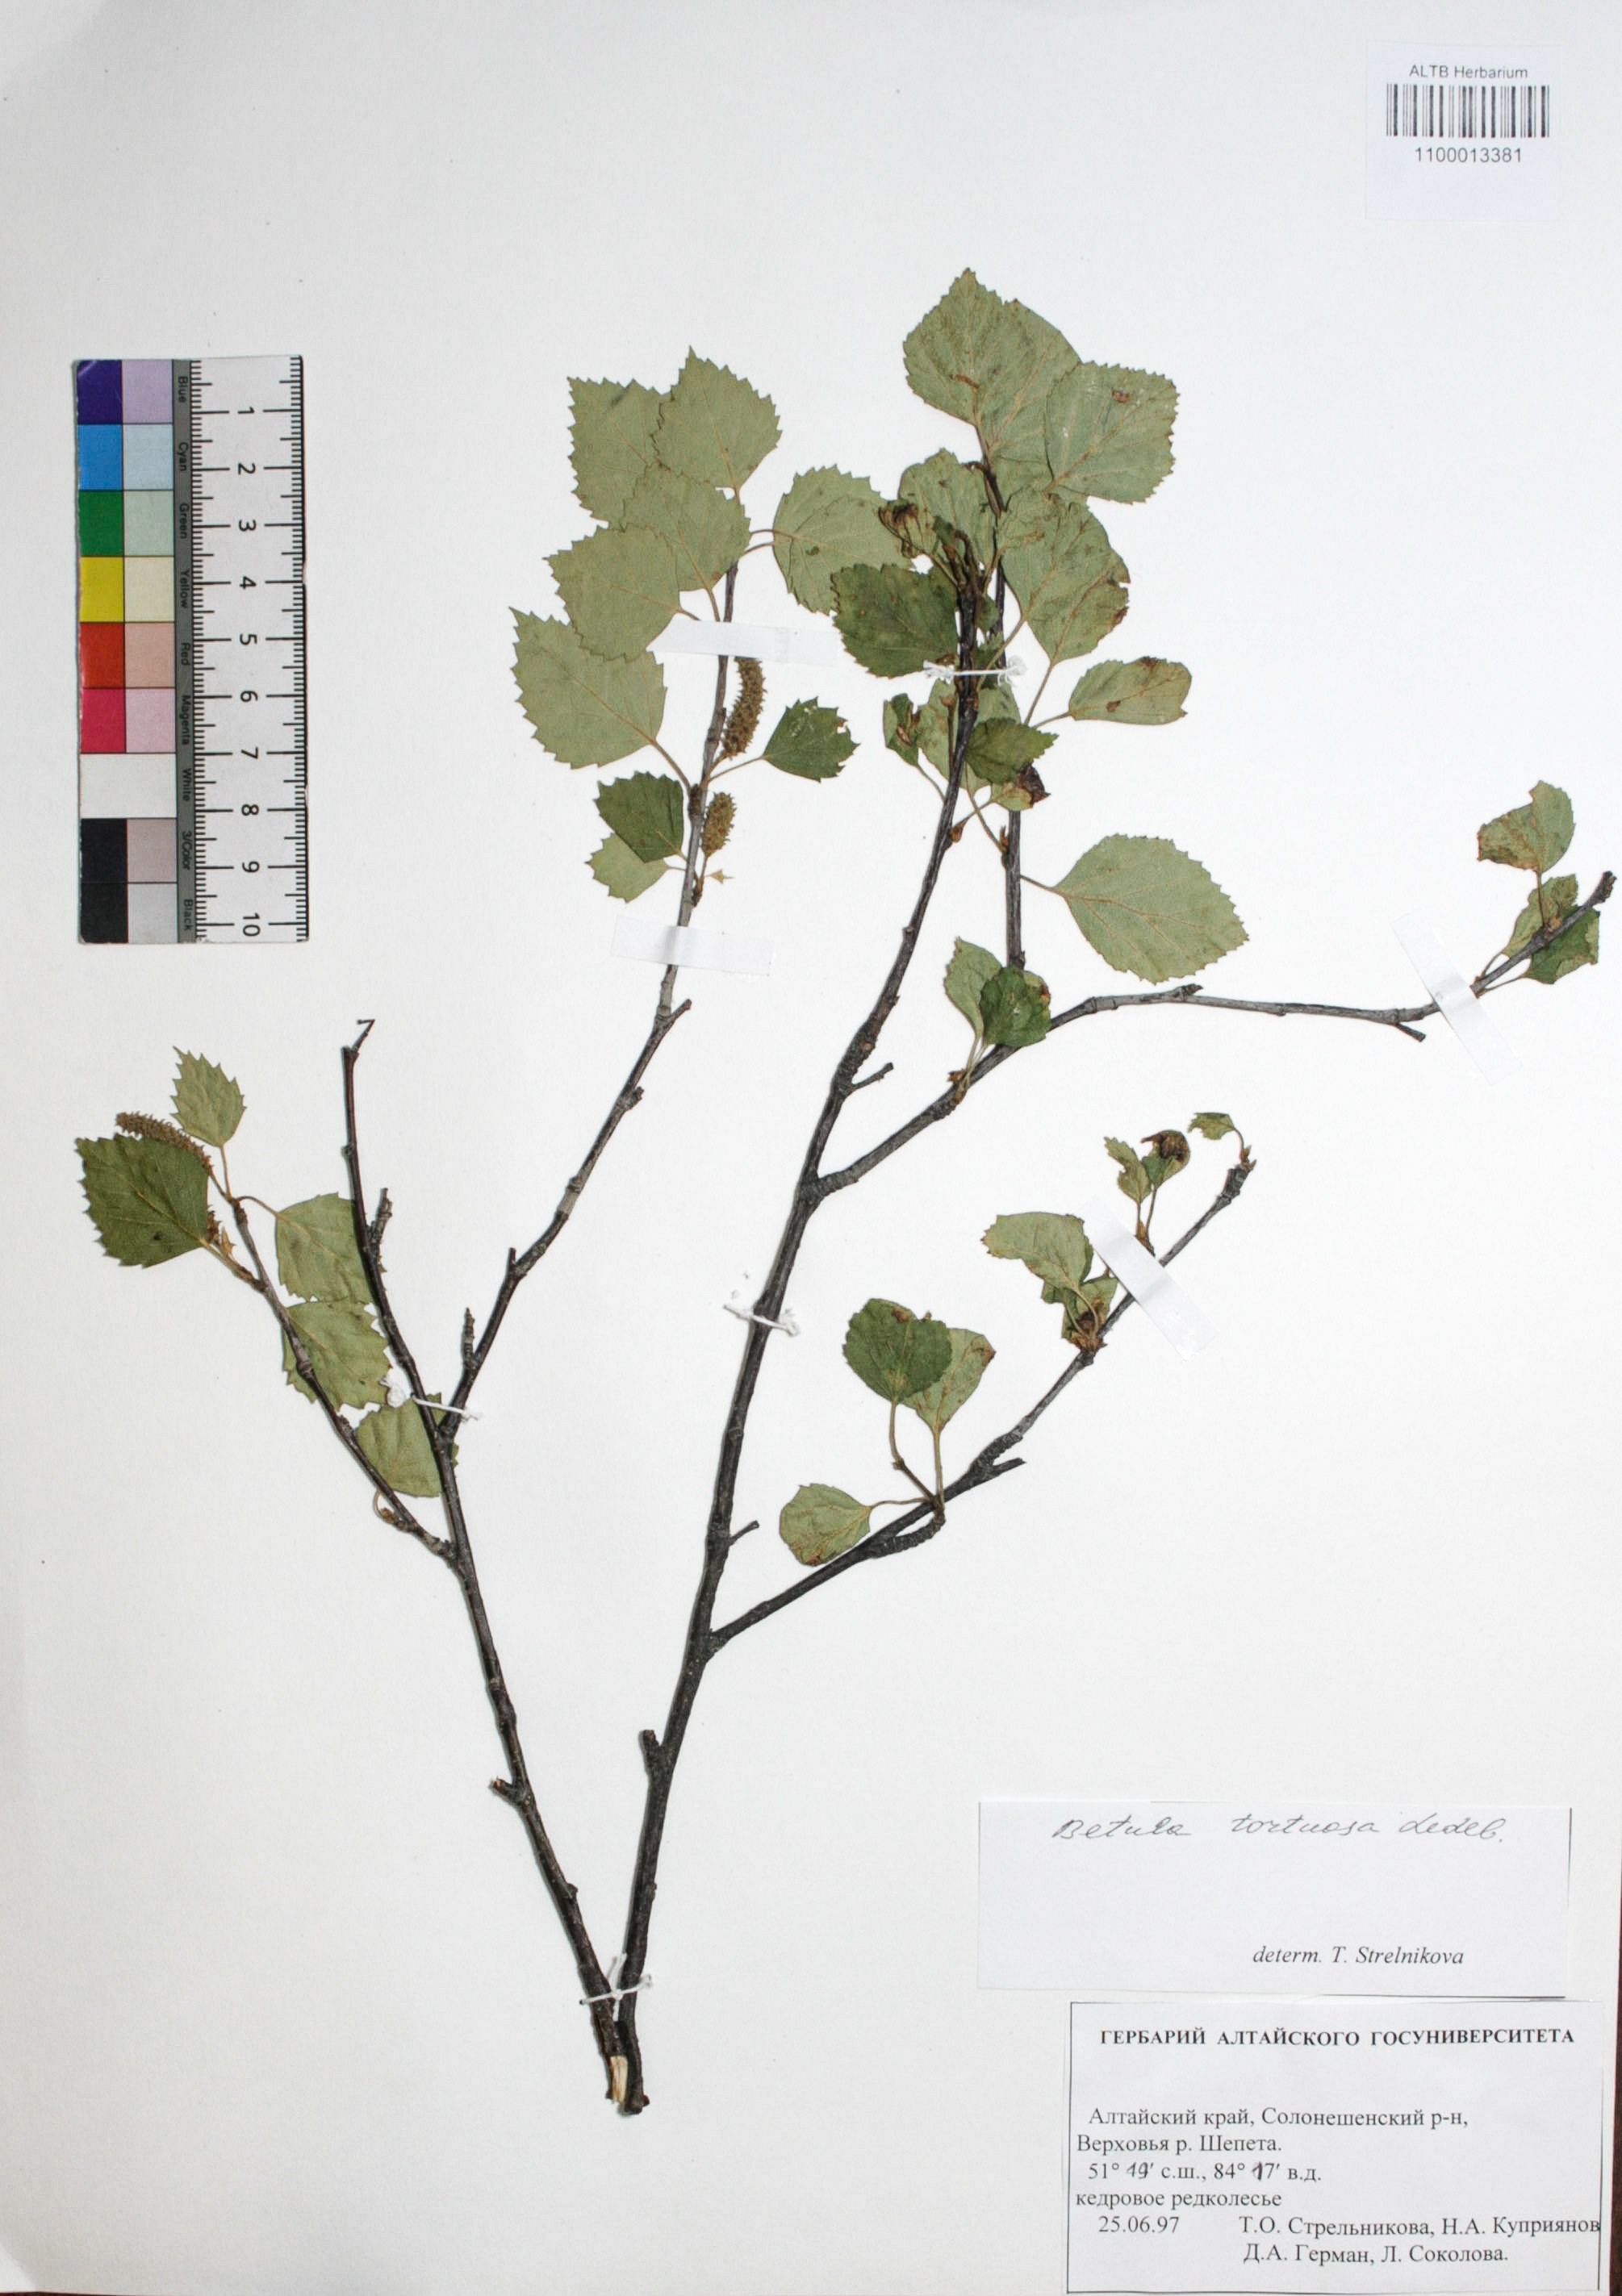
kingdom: Plantae
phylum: Tracheophyta
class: Magnoliopsida
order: Fagales
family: Betulaceae
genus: Betula
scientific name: Betula pubescens
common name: Downy birch
